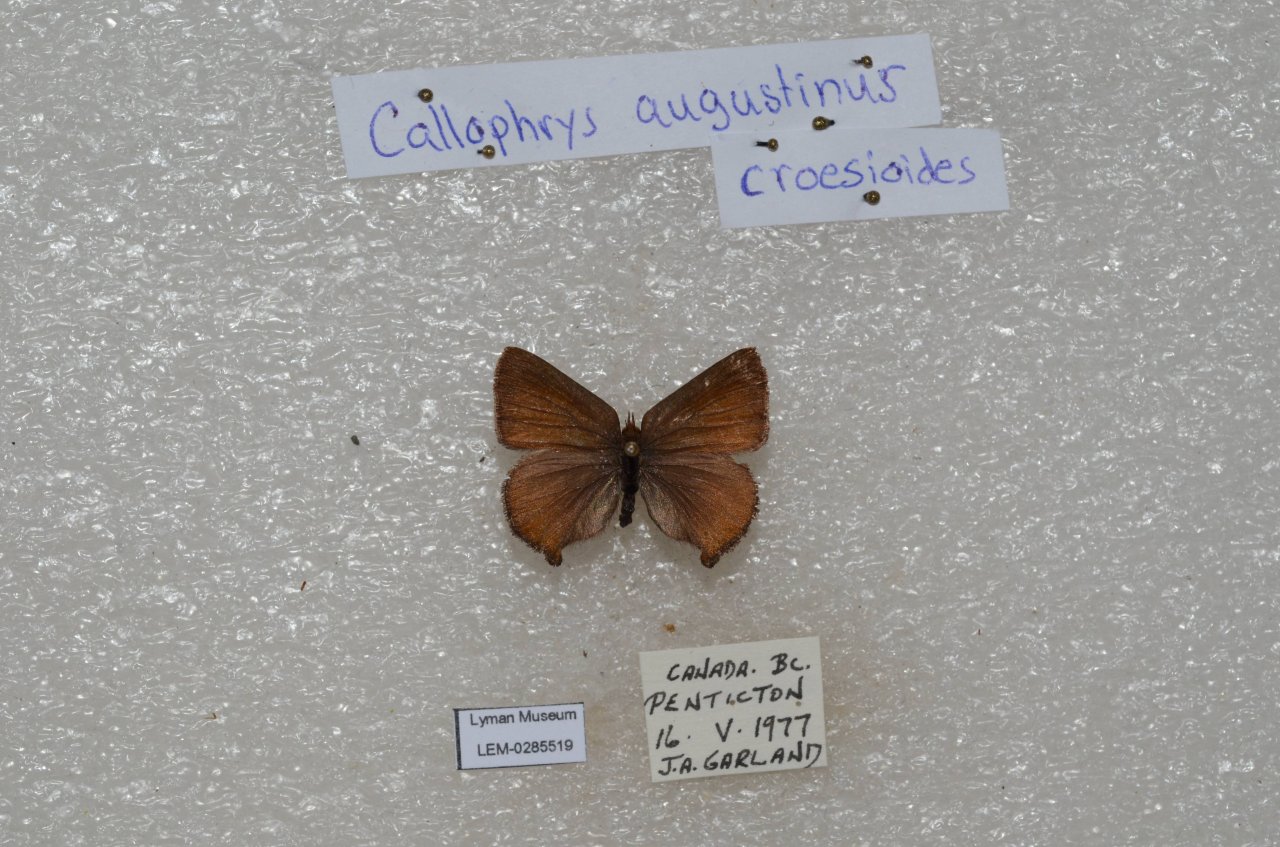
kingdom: Animalia
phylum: Arthropoda
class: Insecta
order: Lepidoptera
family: Lycaenidae
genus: Incisalia
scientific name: Incisalia irioides
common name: Brown Elfin
